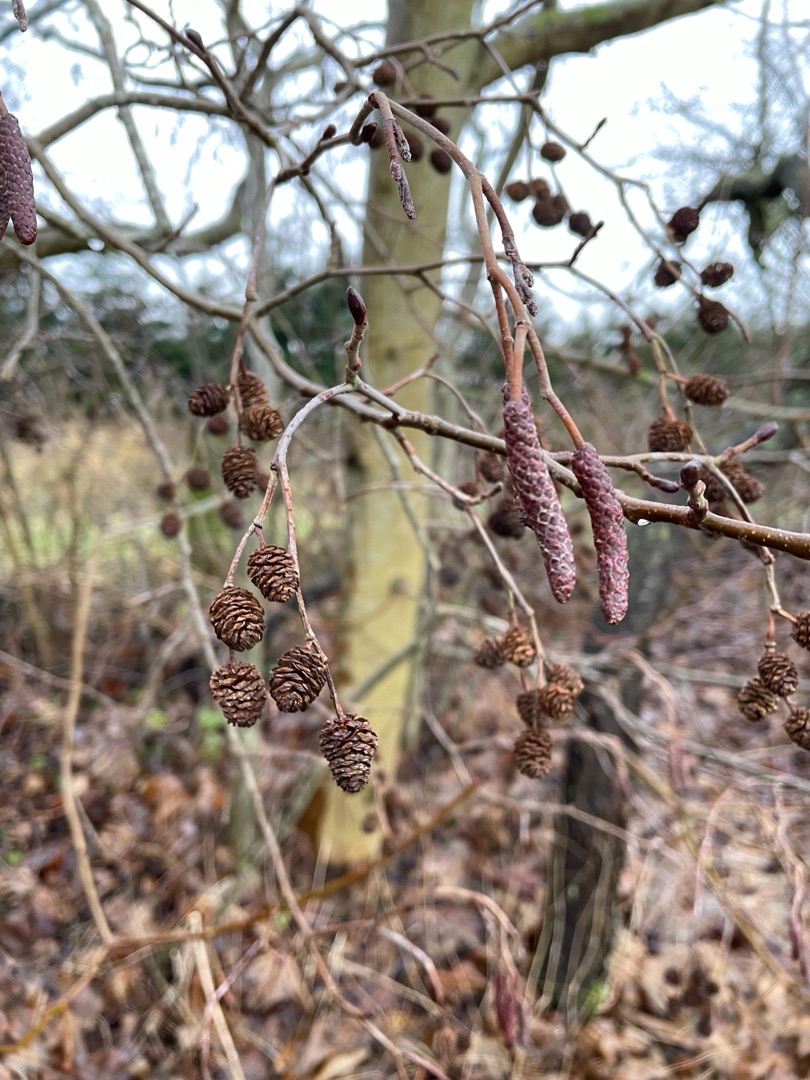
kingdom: Plantae
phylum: Tracheophyta
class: Magnoliopsida
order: Fagales
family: Betulaceae
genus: Alnus
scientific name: Alnus glutinosa
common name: Rød-el
